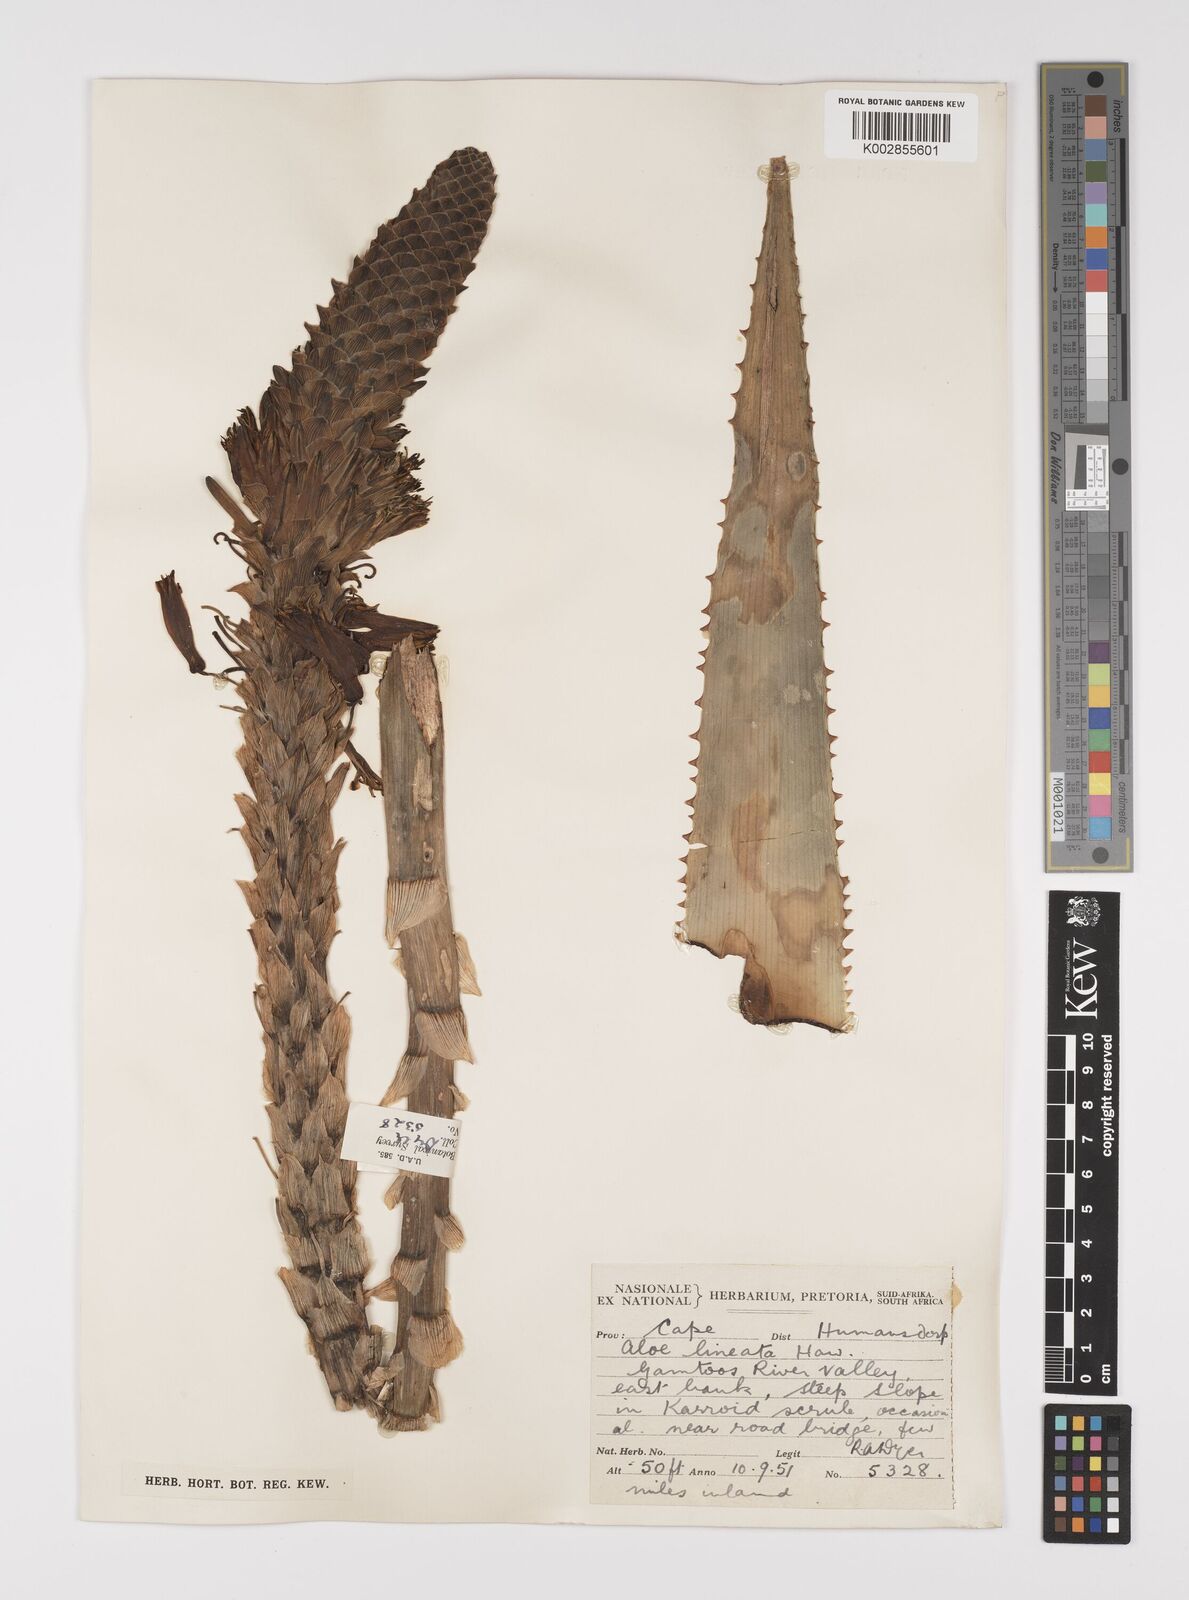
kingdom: Plantae
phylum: Tracheophyta
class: Liliopsida
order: Asparagales
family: Asphodelaceae
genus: Aloe
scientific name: Aloe lineata
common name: Lined red-spined aloe
